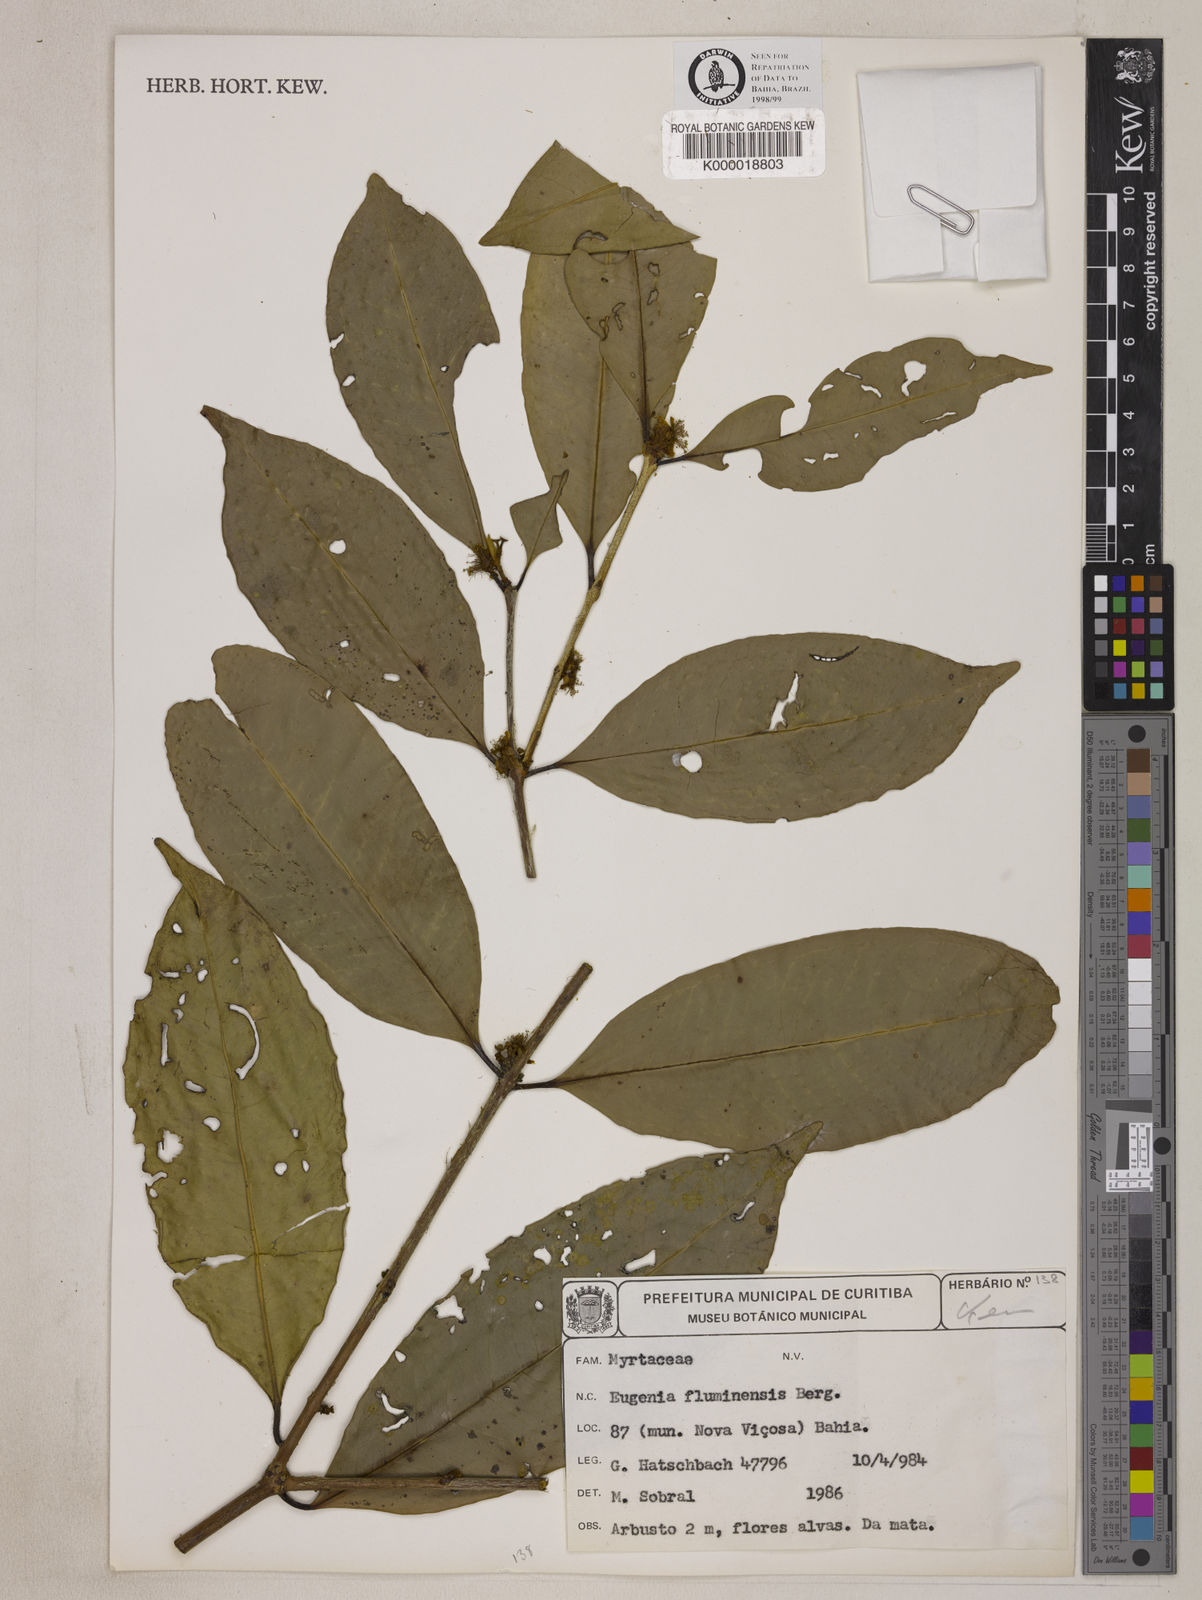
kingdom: Plantae
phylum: Tracheophyta
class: Magnoliopsida
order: Myrtales
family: Myrtaceae
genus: Eugenia
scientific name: Eugenia fluminensis
